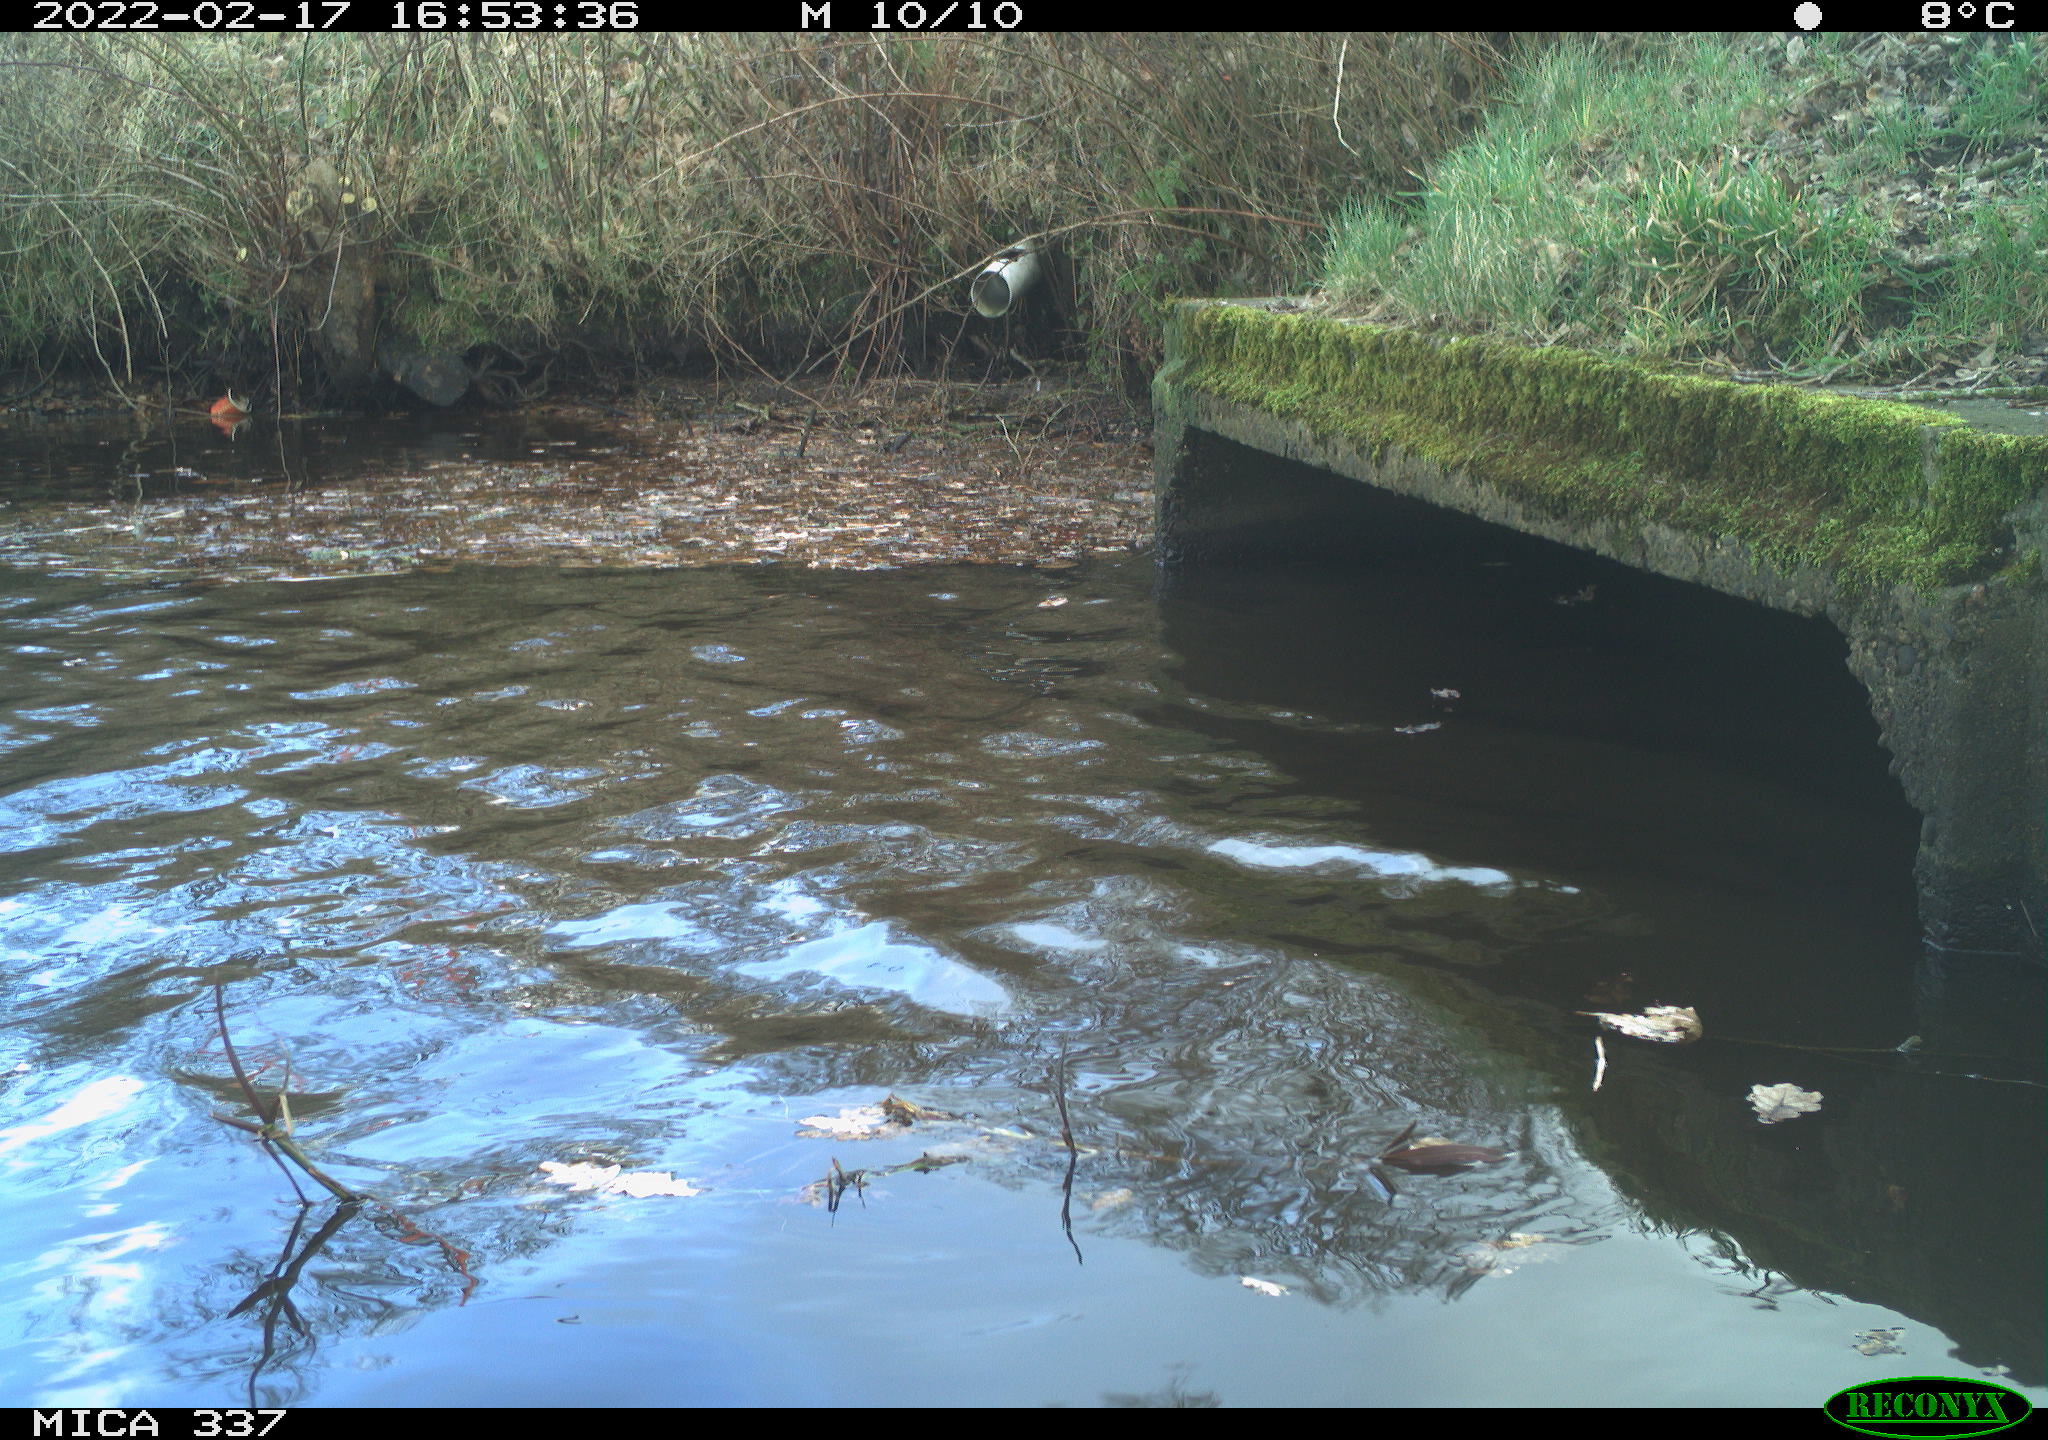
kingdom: Animalia
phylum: Chordata
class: Aves
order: Anseriformes
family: Anatidae
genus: Anas
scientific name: Anas platyrhynchos
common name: Mallard
